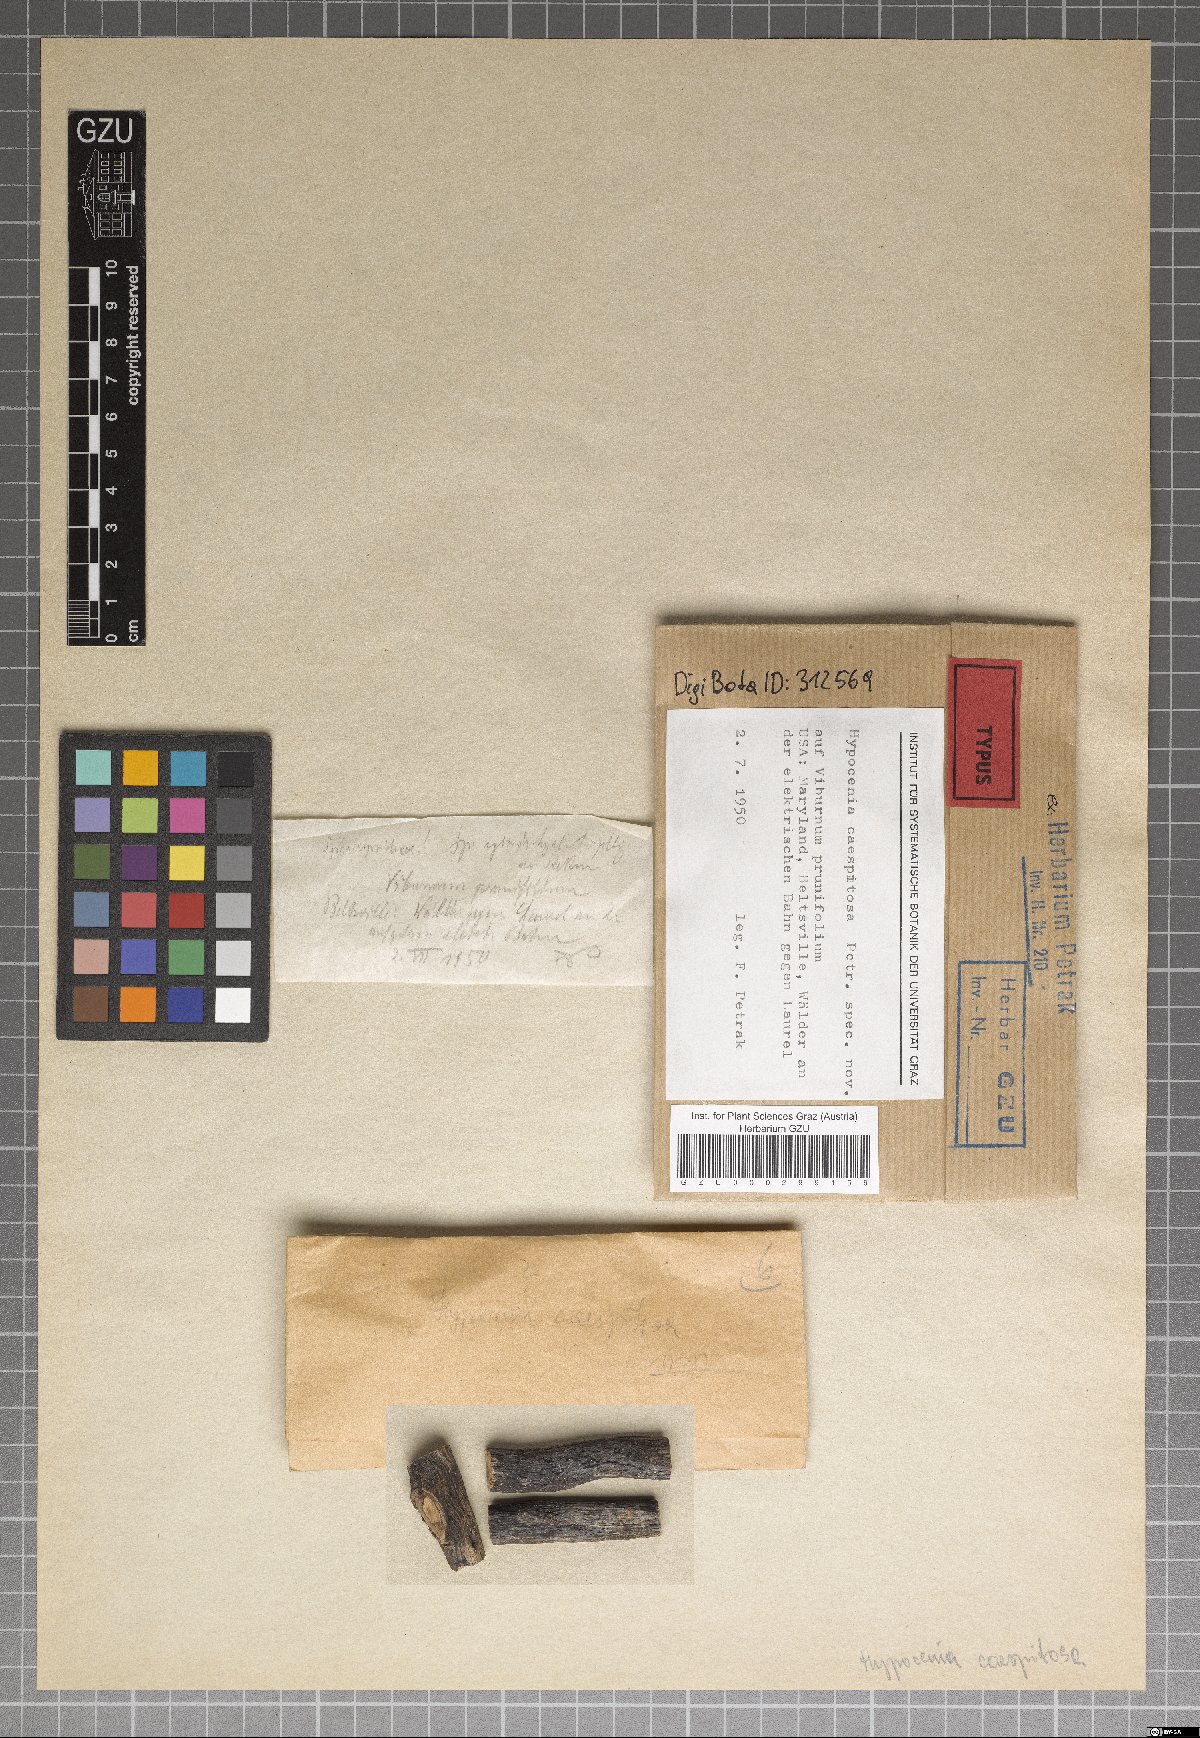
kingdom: Fungi
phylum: Ascomycota
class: Leotiomycetes
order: Helotiales
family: Godroniaceae
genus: Hypocenia
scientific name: Hypocenia caespitosa
